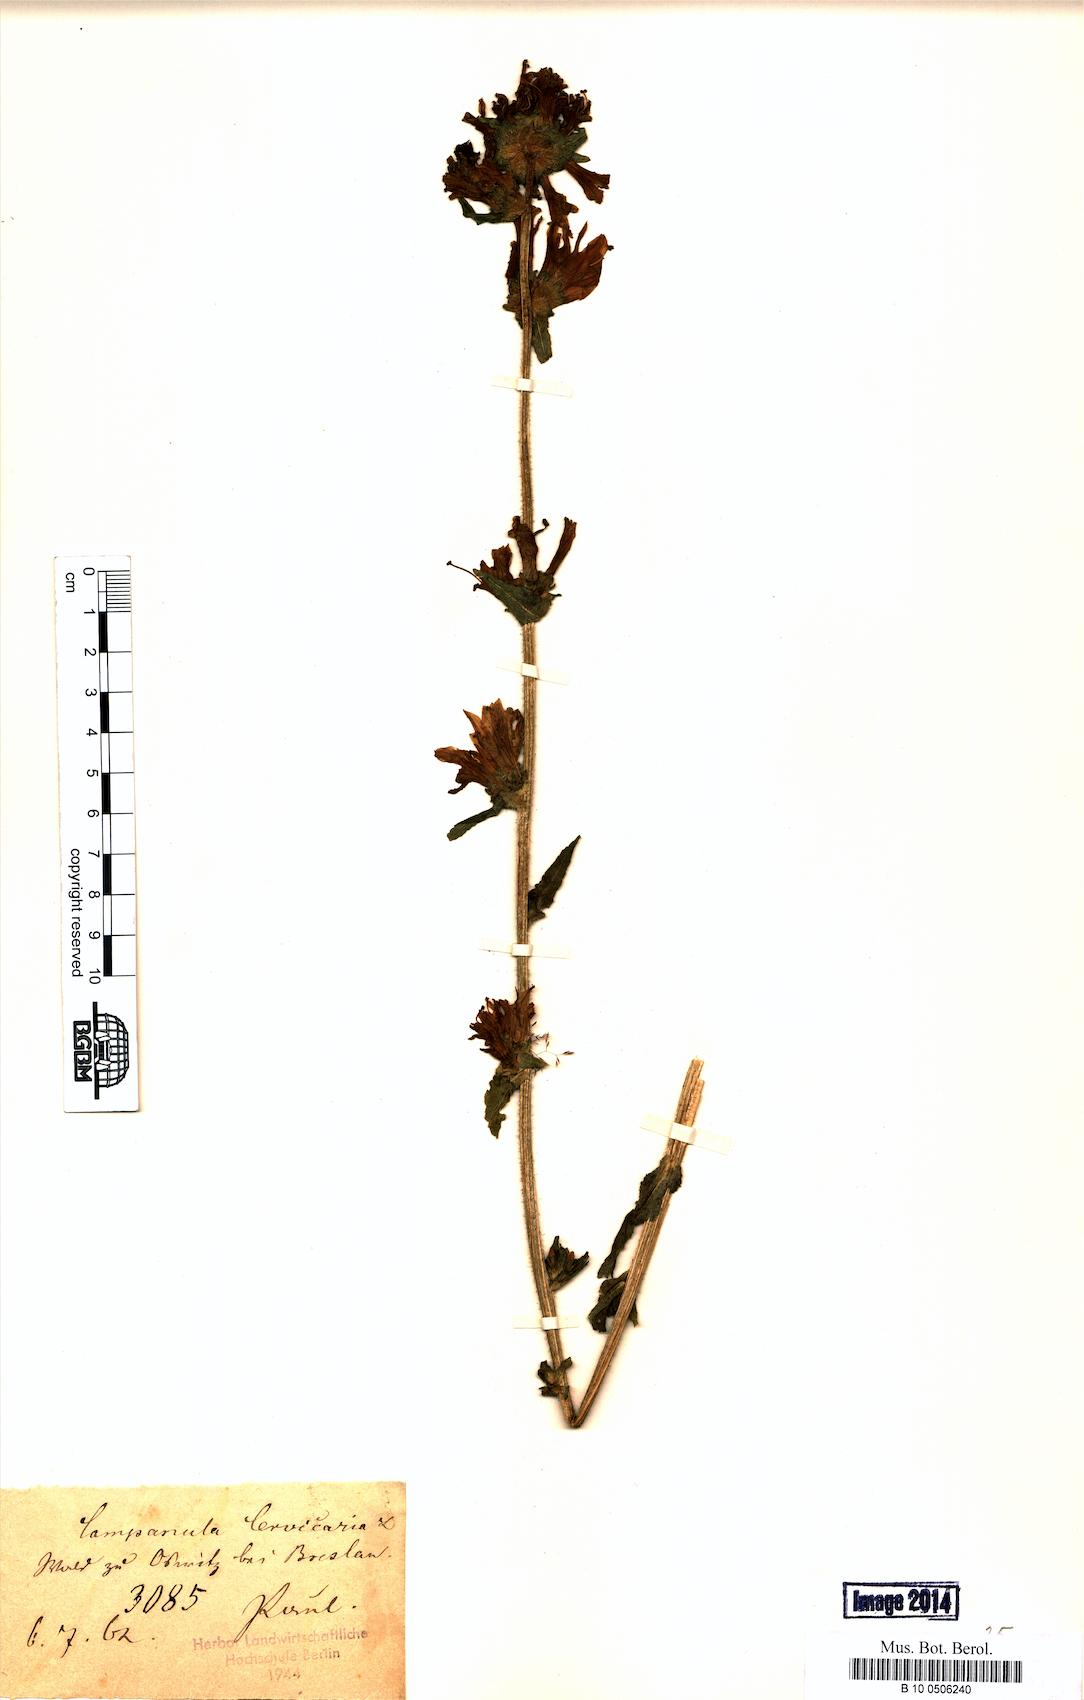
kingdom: Plantae
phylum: Tracheophyta
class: Magnoliopsida
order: Asterales
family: Campanulaceae
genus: Campanula
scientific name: Campanula cervicaria
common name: Bristly bellflower
